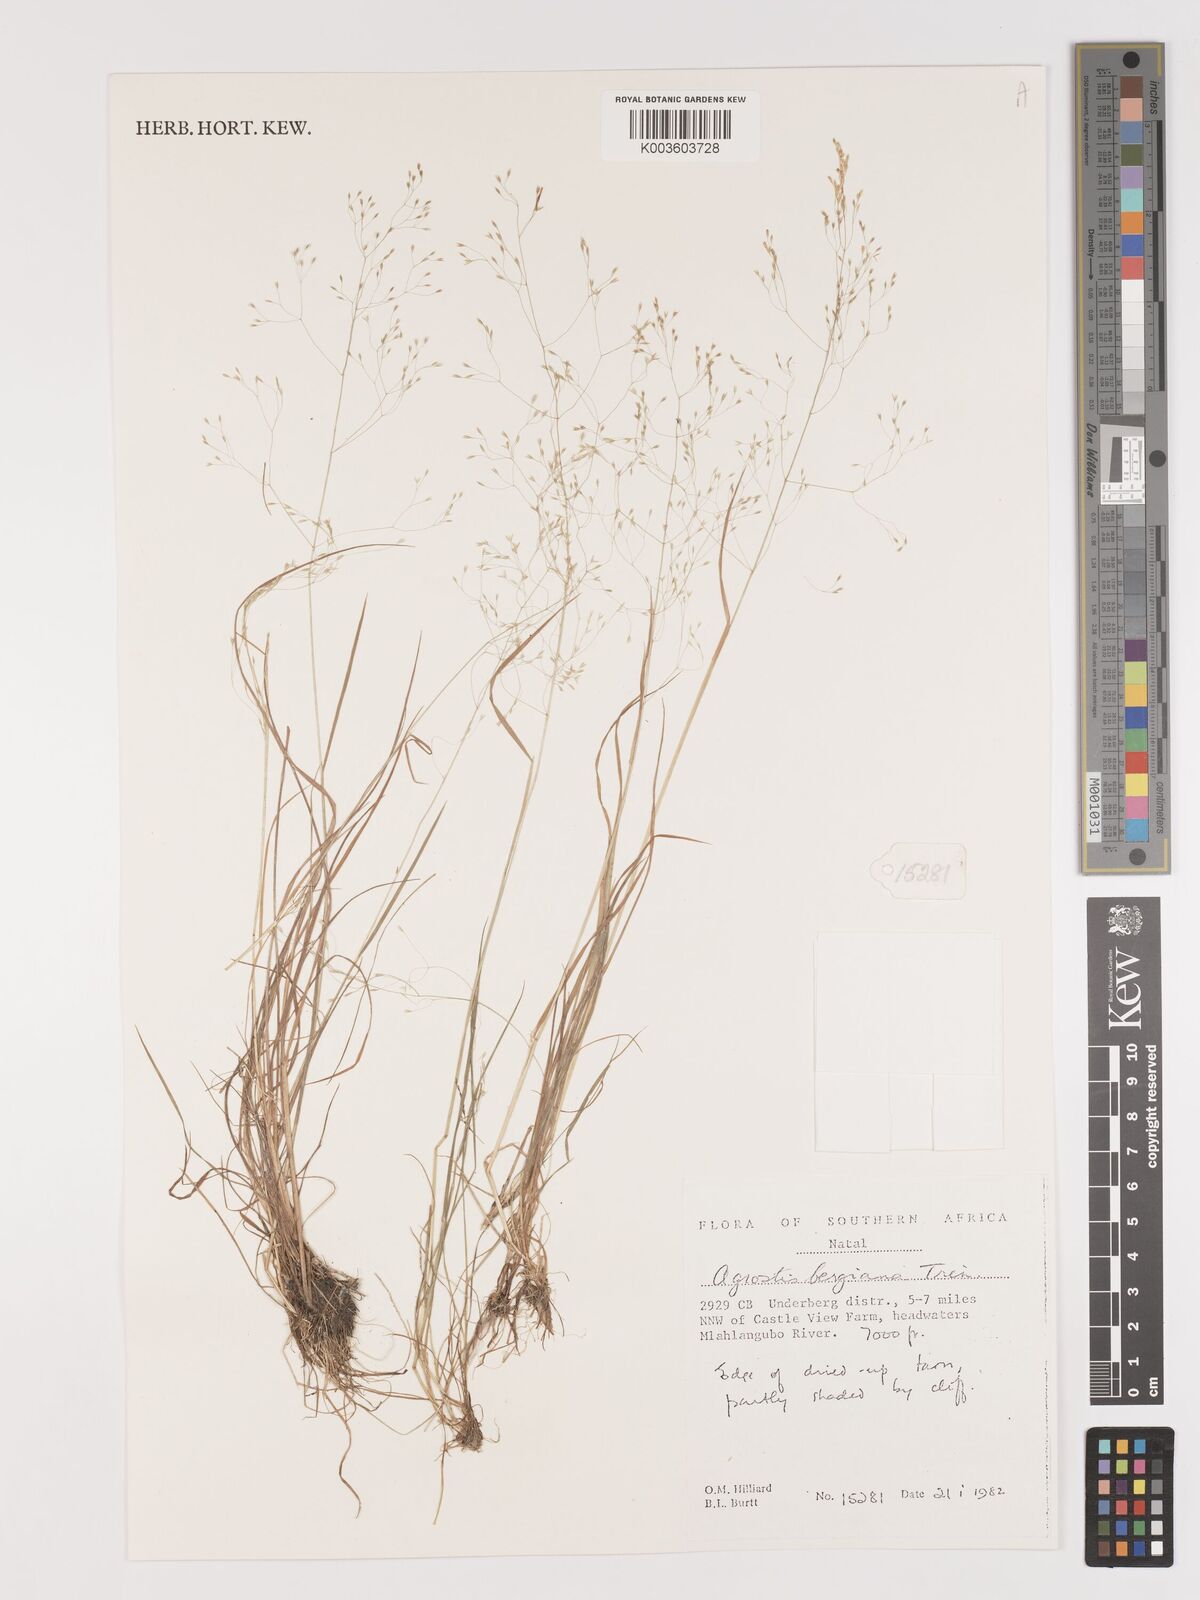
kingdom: Plantae
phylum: Tracheophyta
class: Liliopsida
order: Poales
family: Poaceae
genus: Agrostis
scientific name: Agrostis bergiana
